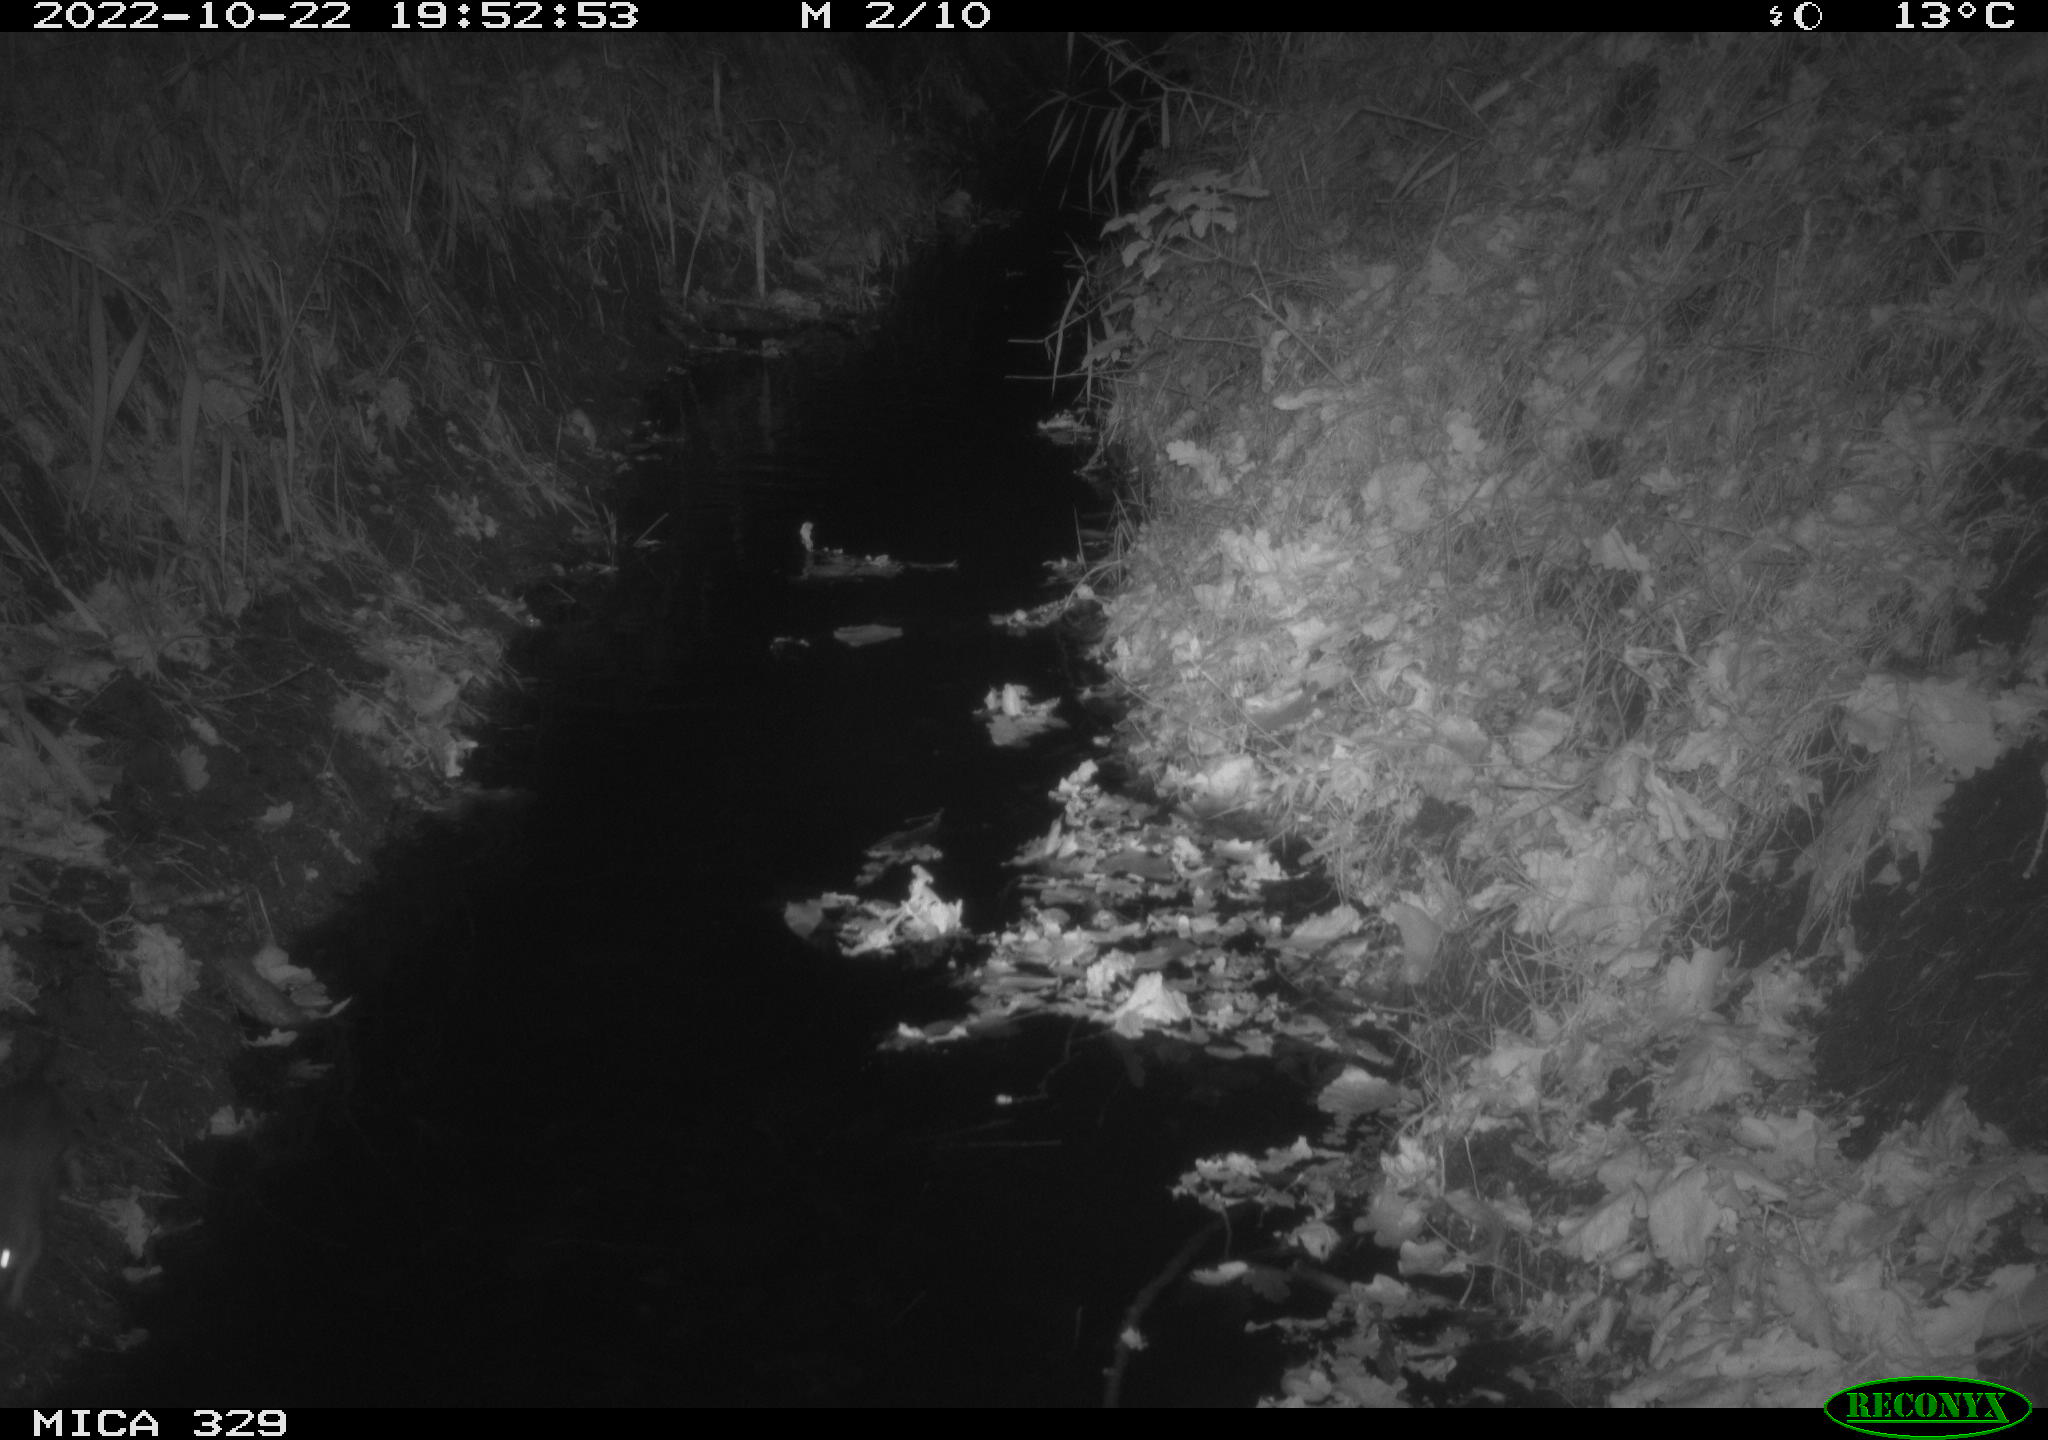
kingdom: Animalia
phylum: Chordata
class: Mammalia
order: Rodentia
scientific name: Rodentia
